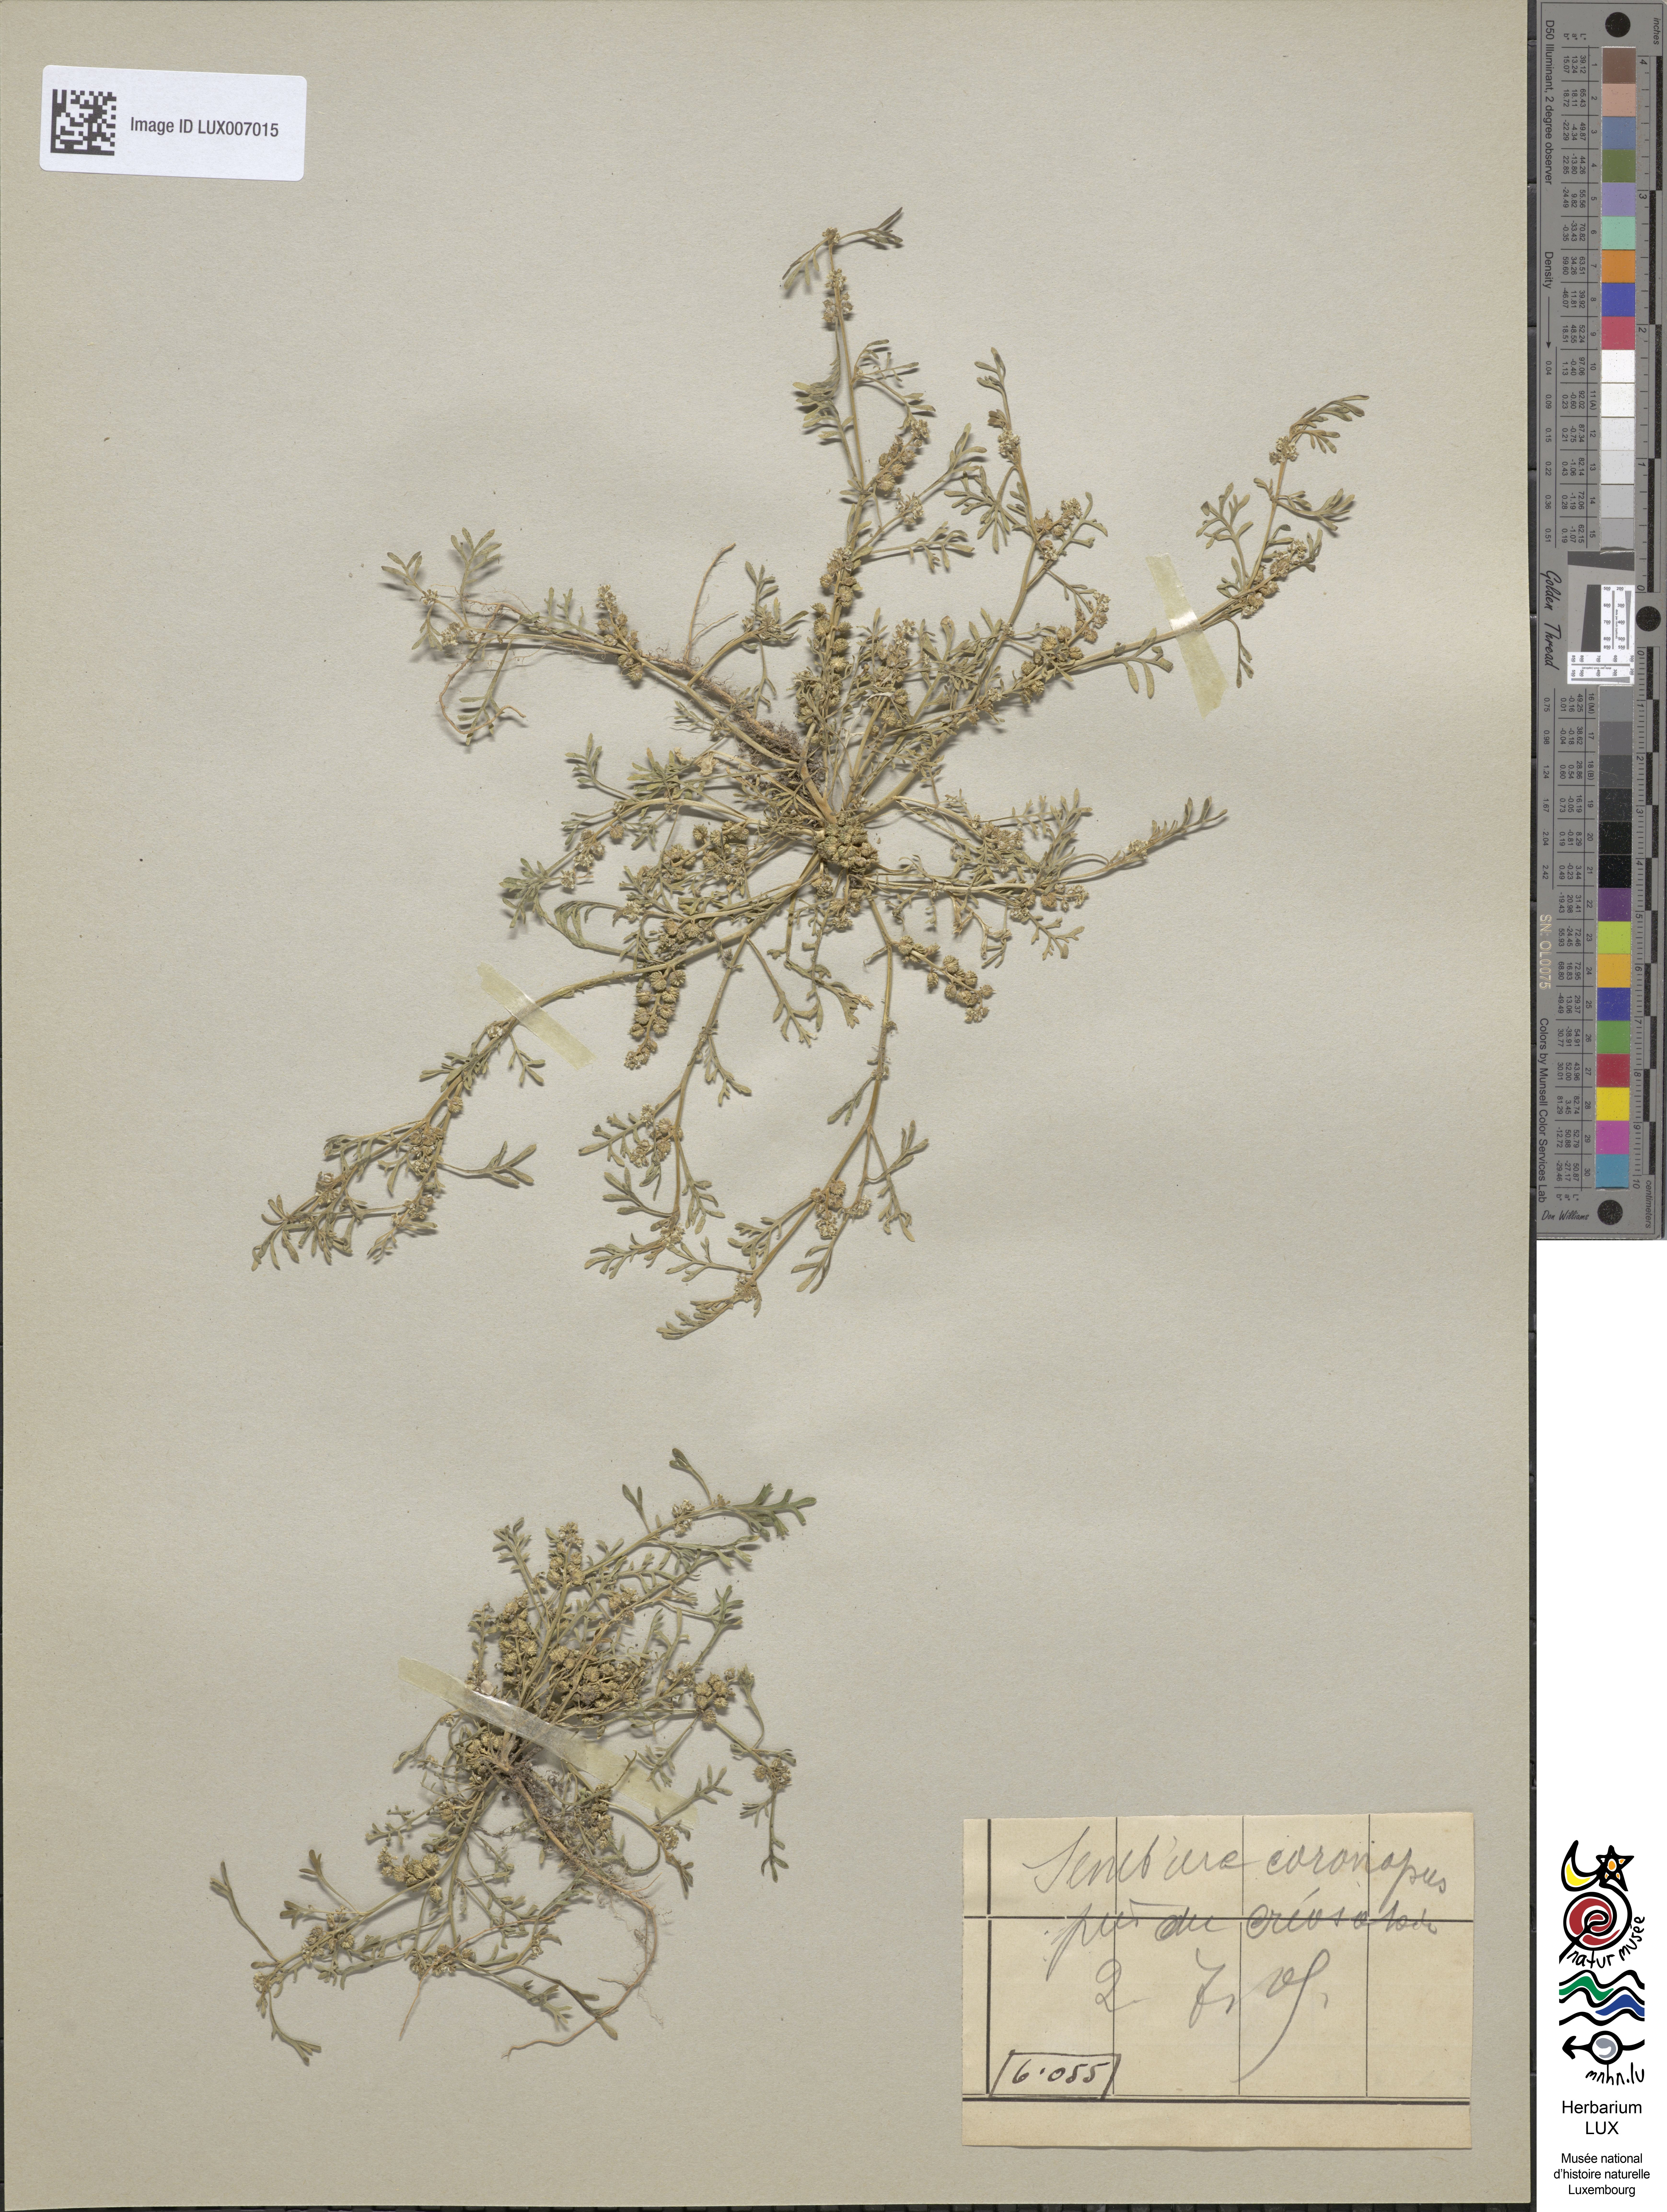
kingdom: Plantae
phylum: Tracheophyta
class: Magnoliopsida
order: Brassicales
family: Brassicaceae
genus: Lepidium
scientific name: Lepidium coronopus
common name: Greater swinecress
